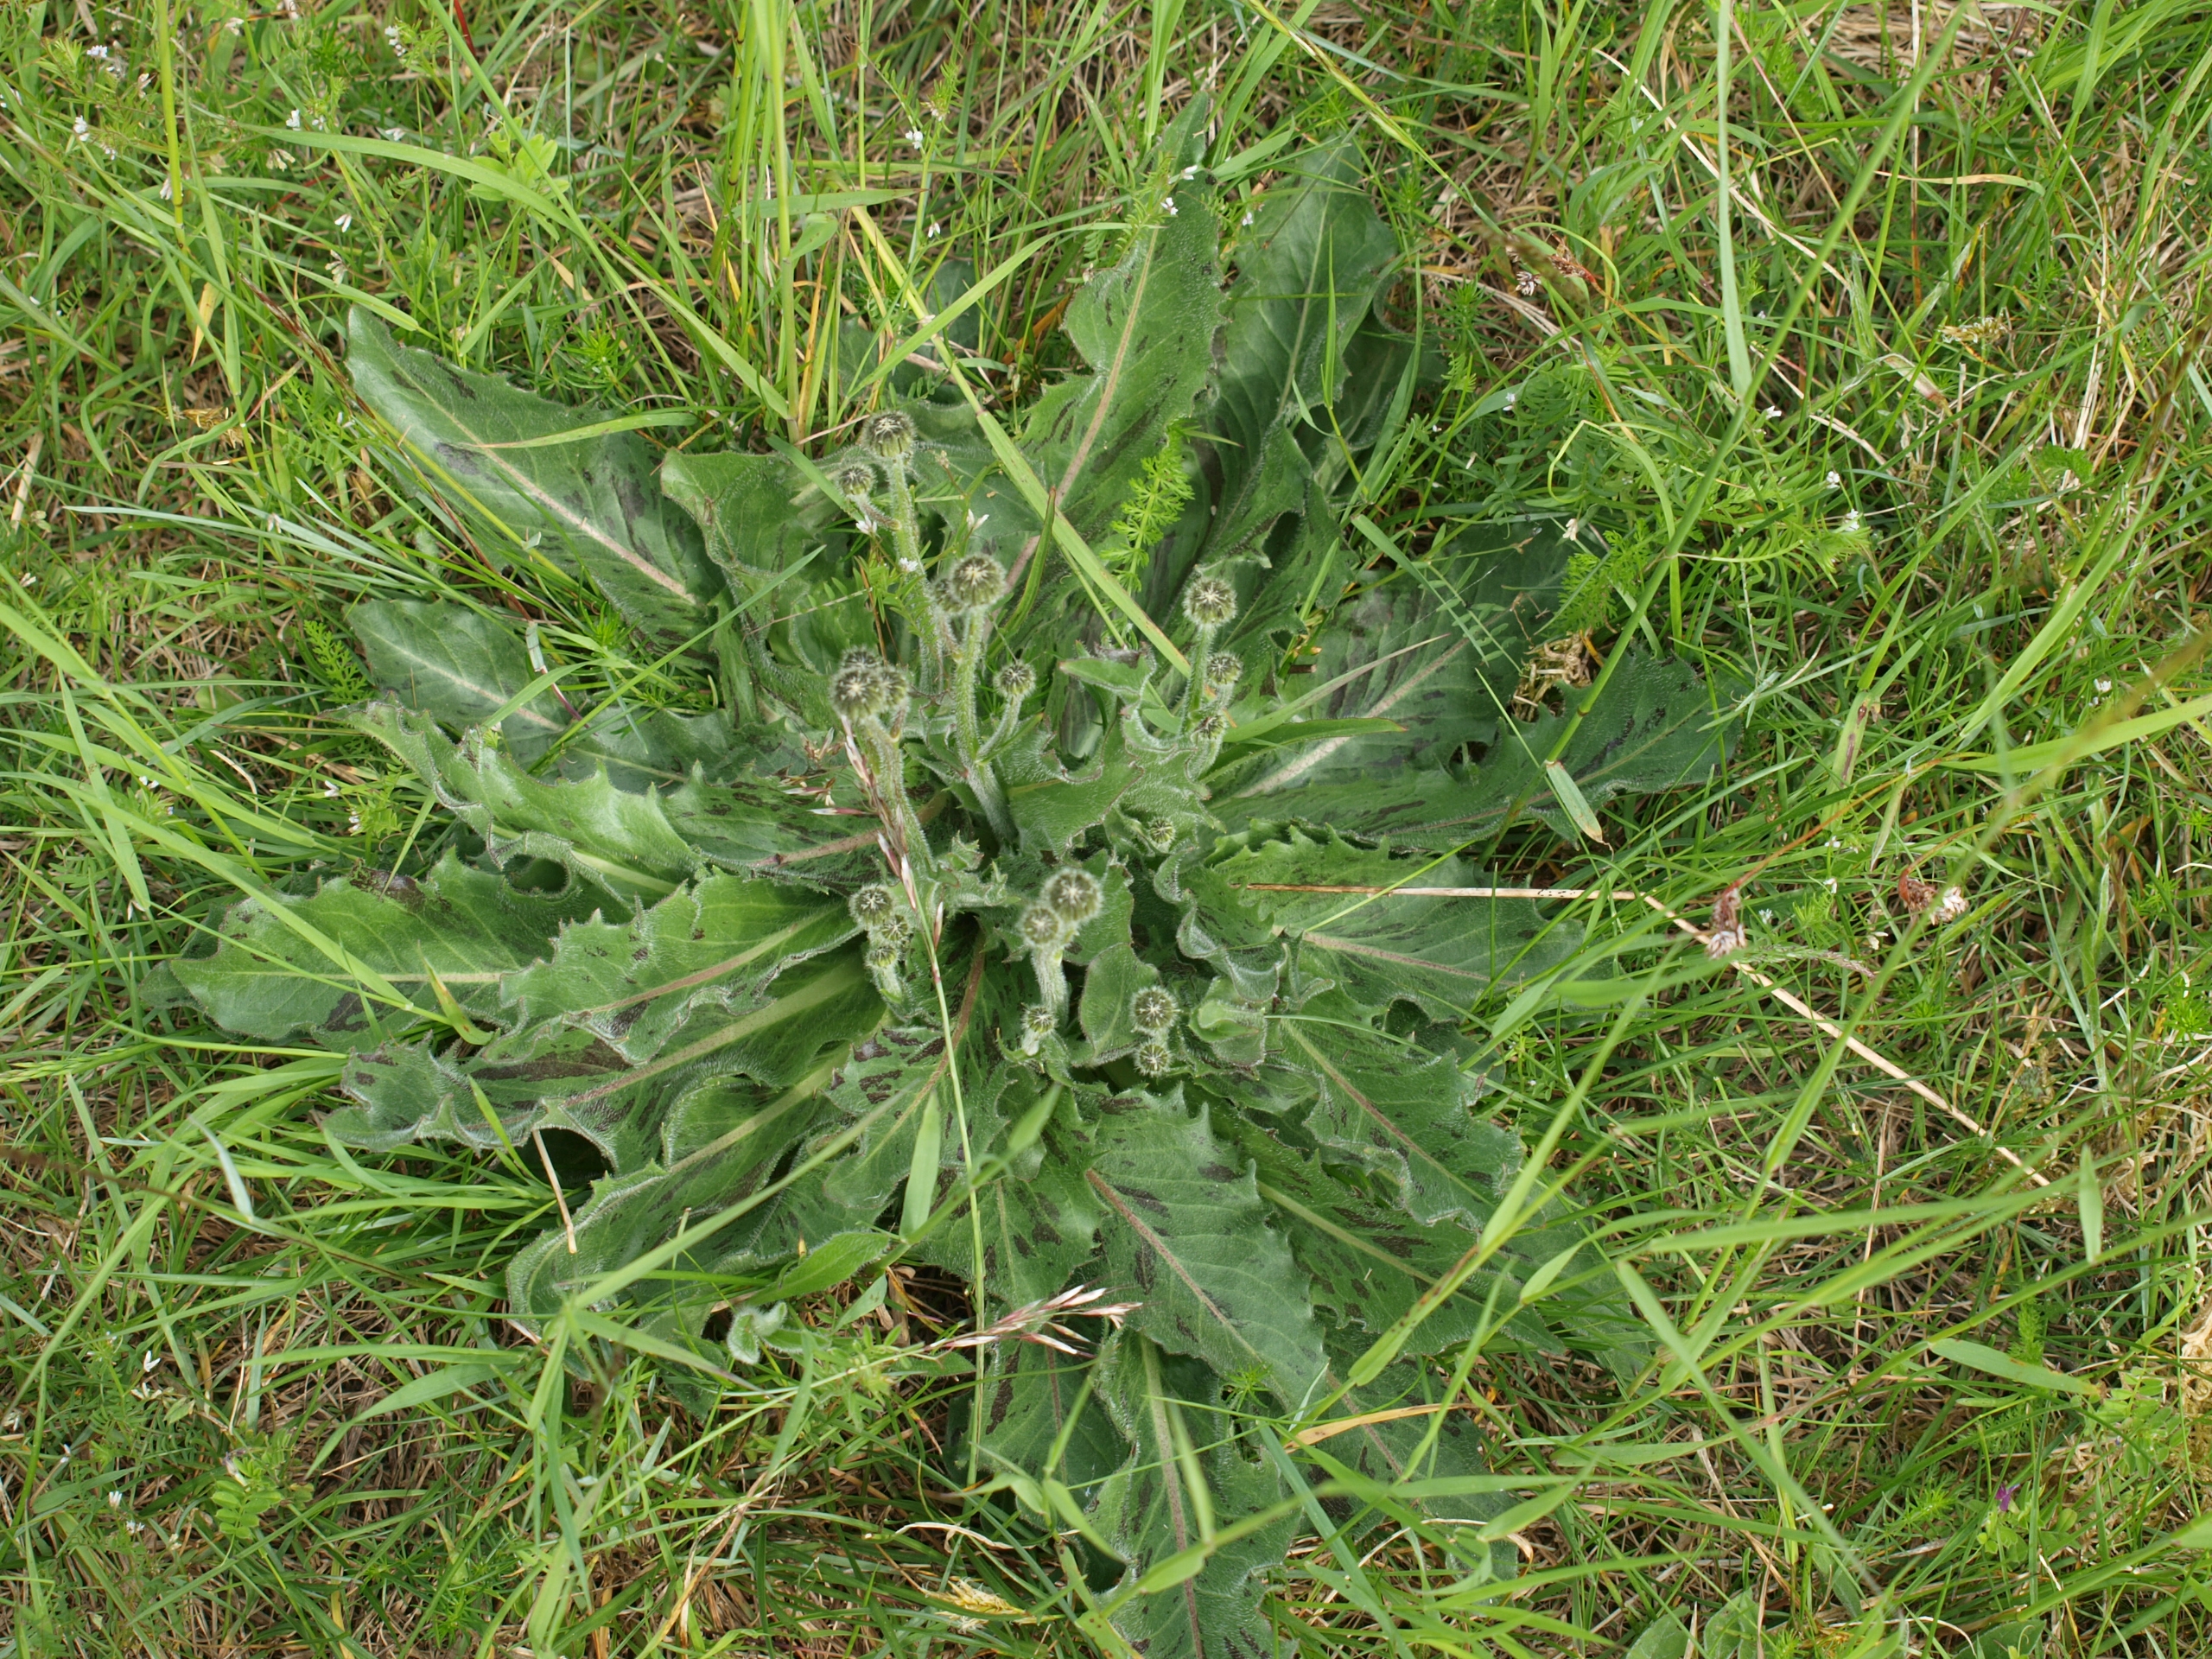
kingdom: Plantae
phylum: Tracheophyta
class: Magnoliopsida
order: Asterales
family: Asteraceae
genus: Trommsdorffia
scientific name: Trommsdorffia maculata
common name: Plettet kongepen
